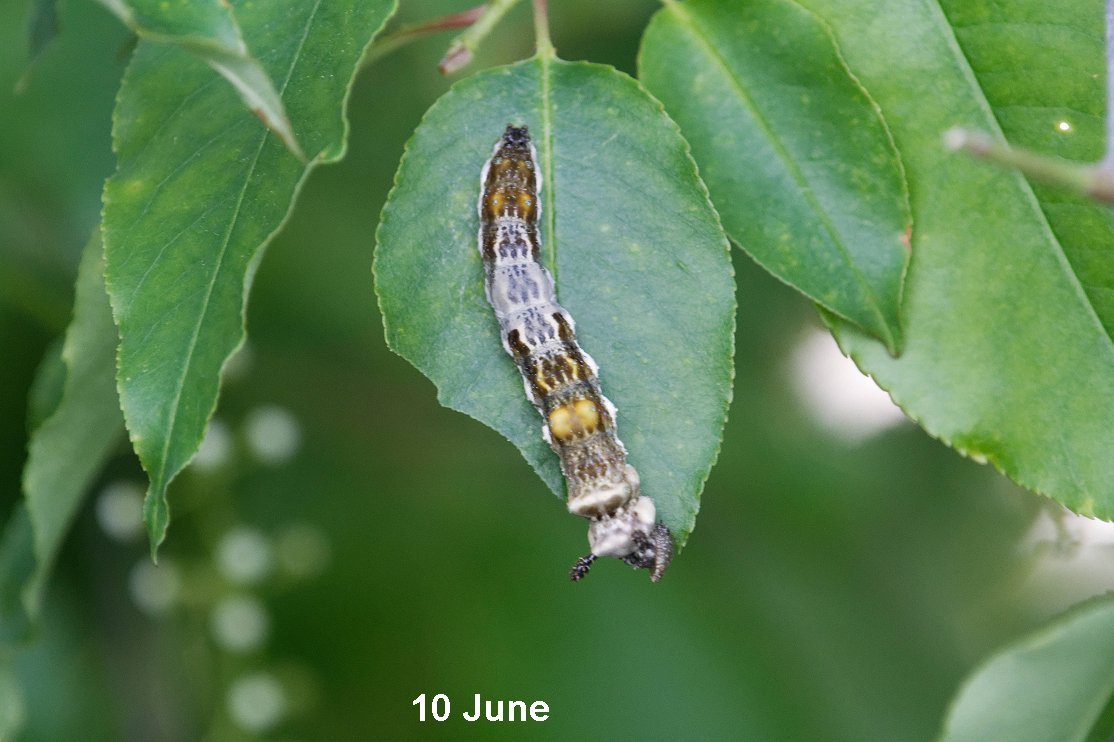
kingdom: Animalia
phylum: Arthropoda
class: Insecta
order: Lepidoptera
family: Nymphalidae
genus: Limenitis
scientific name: Limenitis arthemis
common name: Red-spotted Admiral
